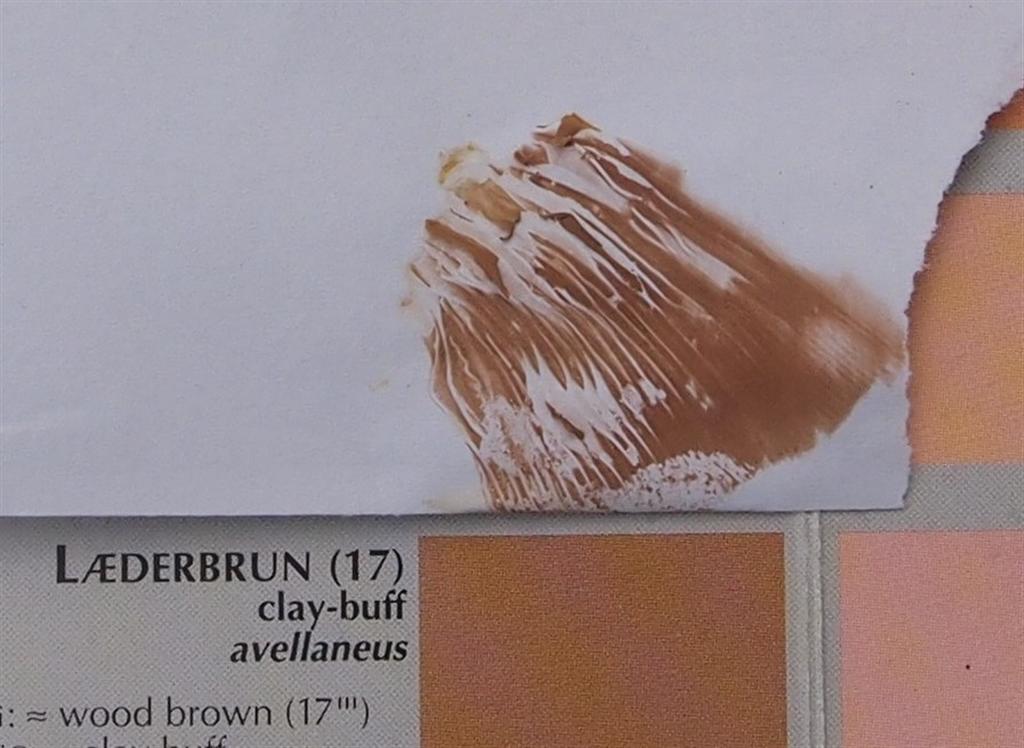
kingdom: Fungi
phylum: Basidiomycota
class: Agaricomycetes
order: Agaricales
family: Entolomataceae
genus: Clitopilus
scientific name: Clitopilus prunulus
